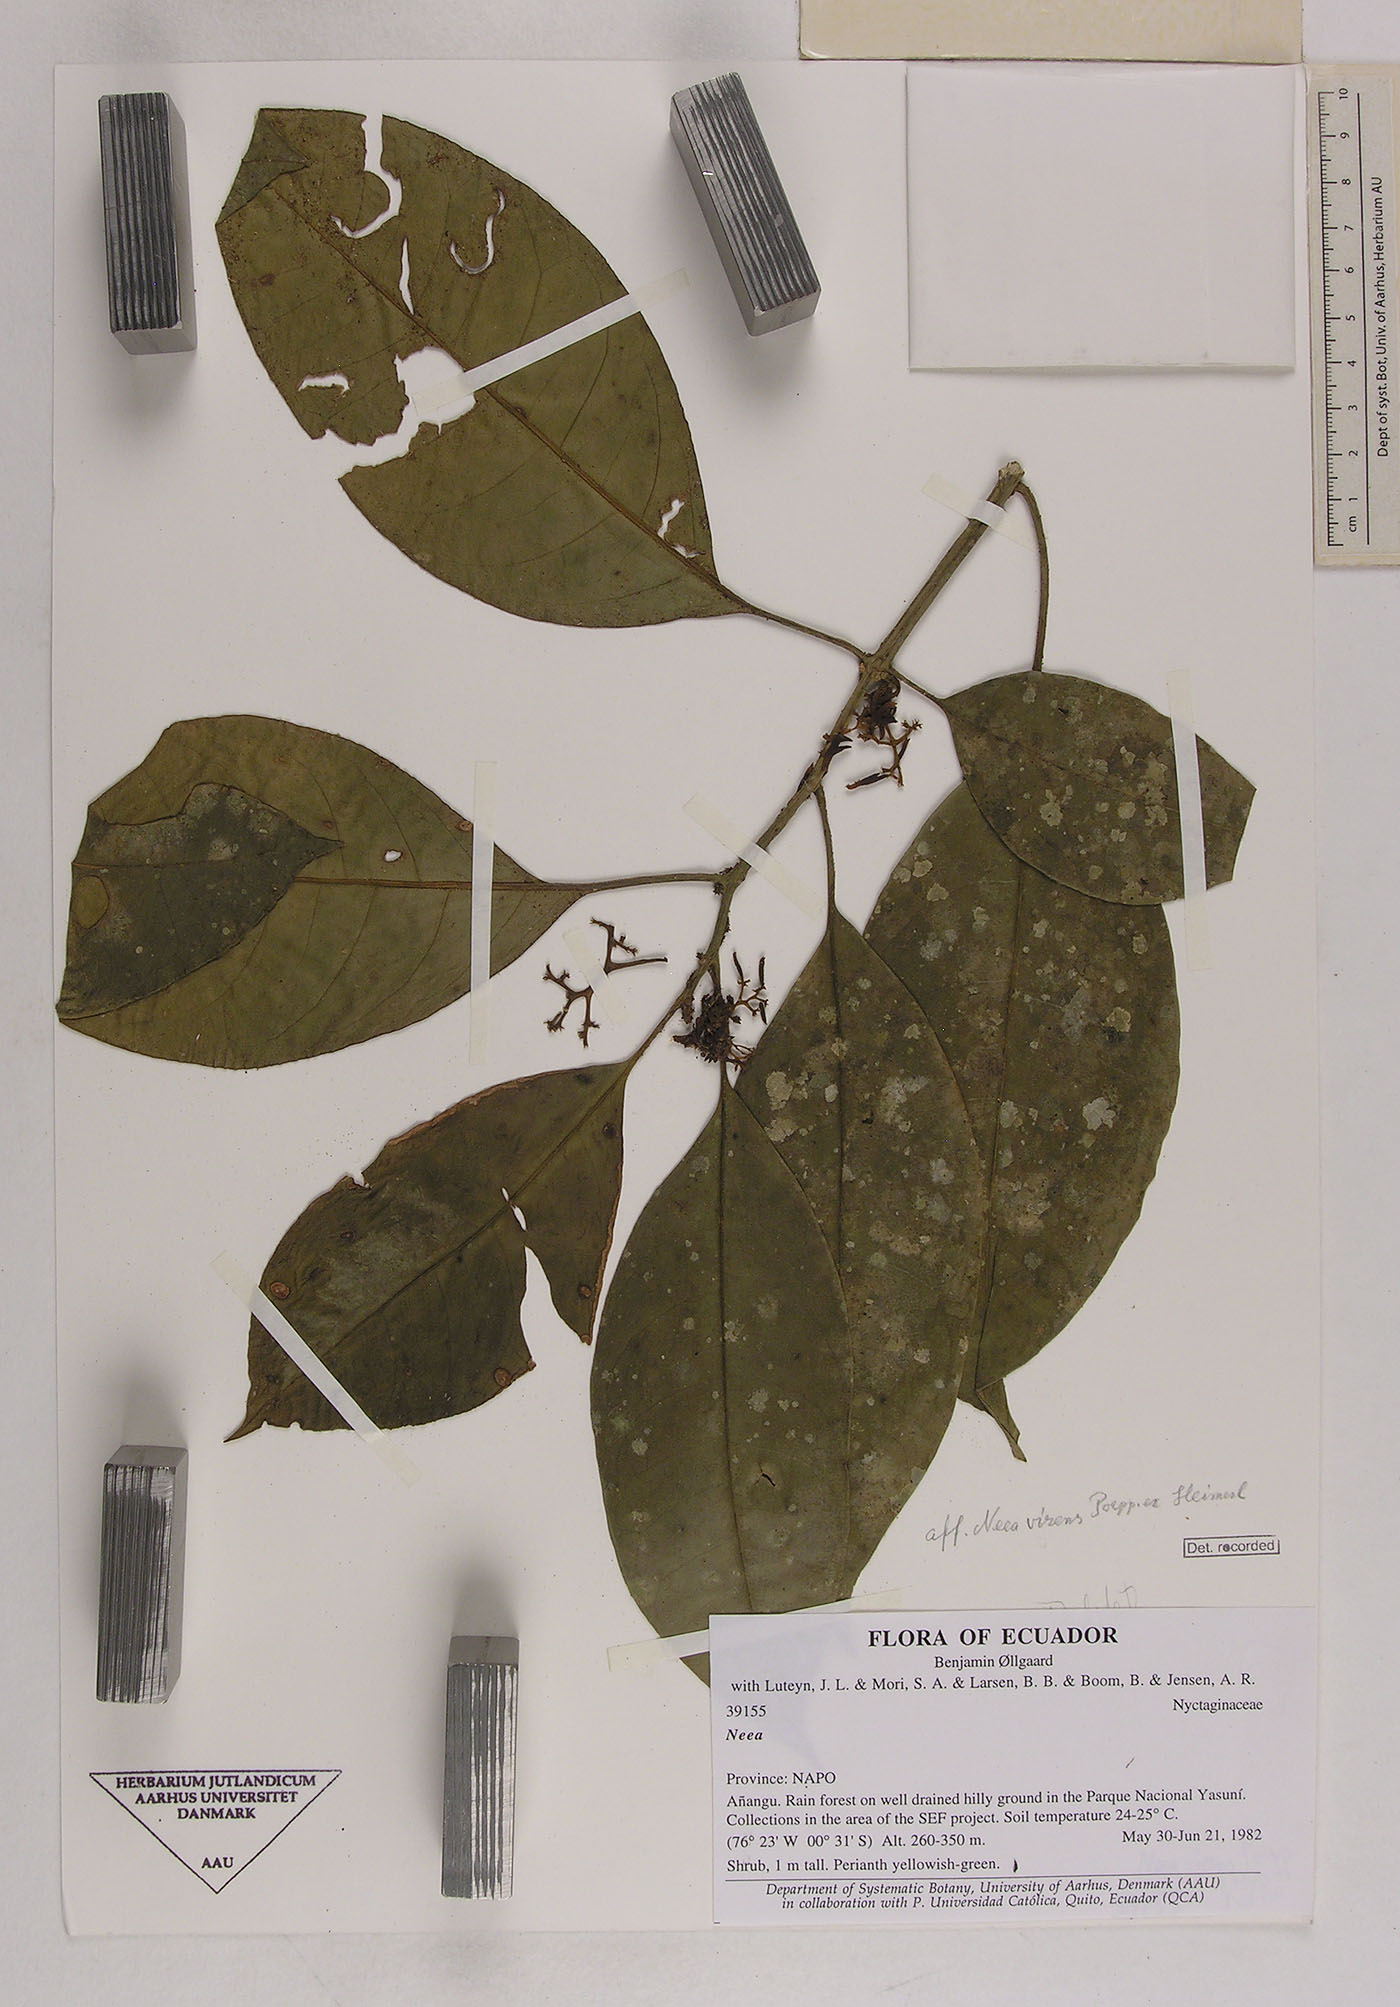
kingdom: Plantae
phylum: Tracheophyta
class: Magnoliopsida
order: Caryophyllales
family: Nyctaginaceae
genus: Neea
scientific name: Neea virens
